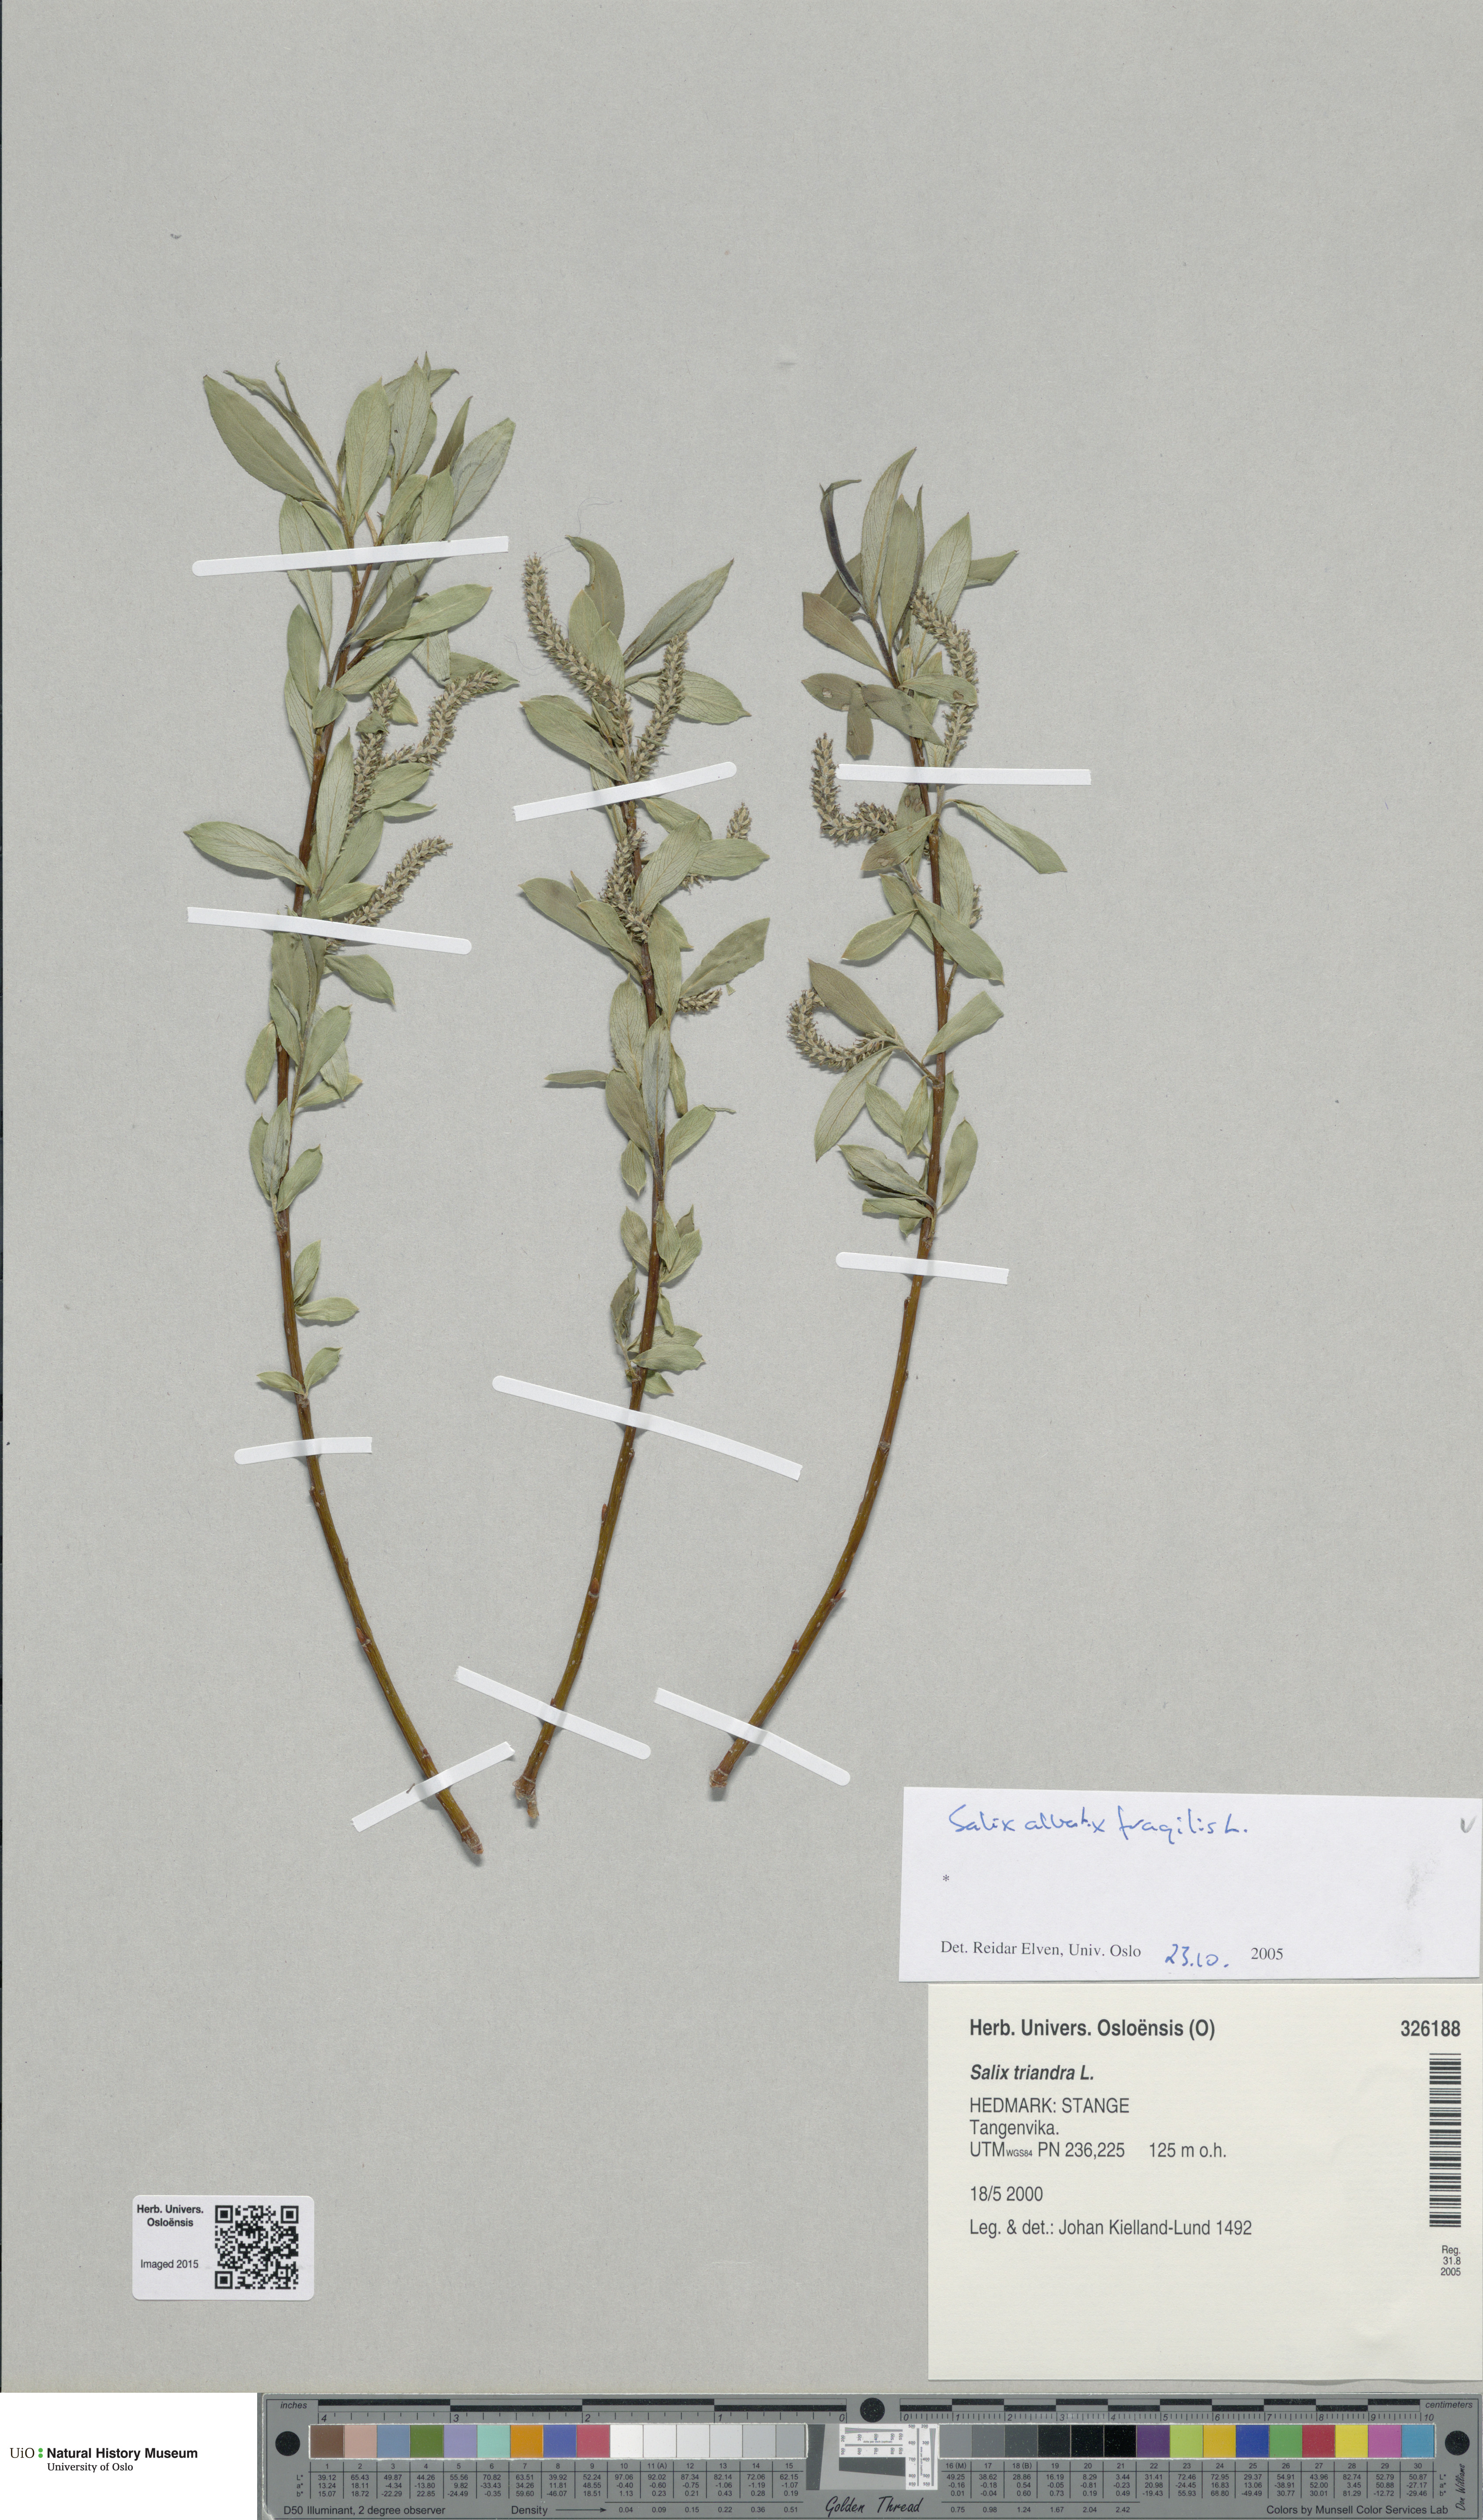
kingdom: Plantae
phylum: Tracheophyta
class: Magnoliopsida
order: Malpighiales
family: Salicaceae
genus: Salix
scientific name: Salix
